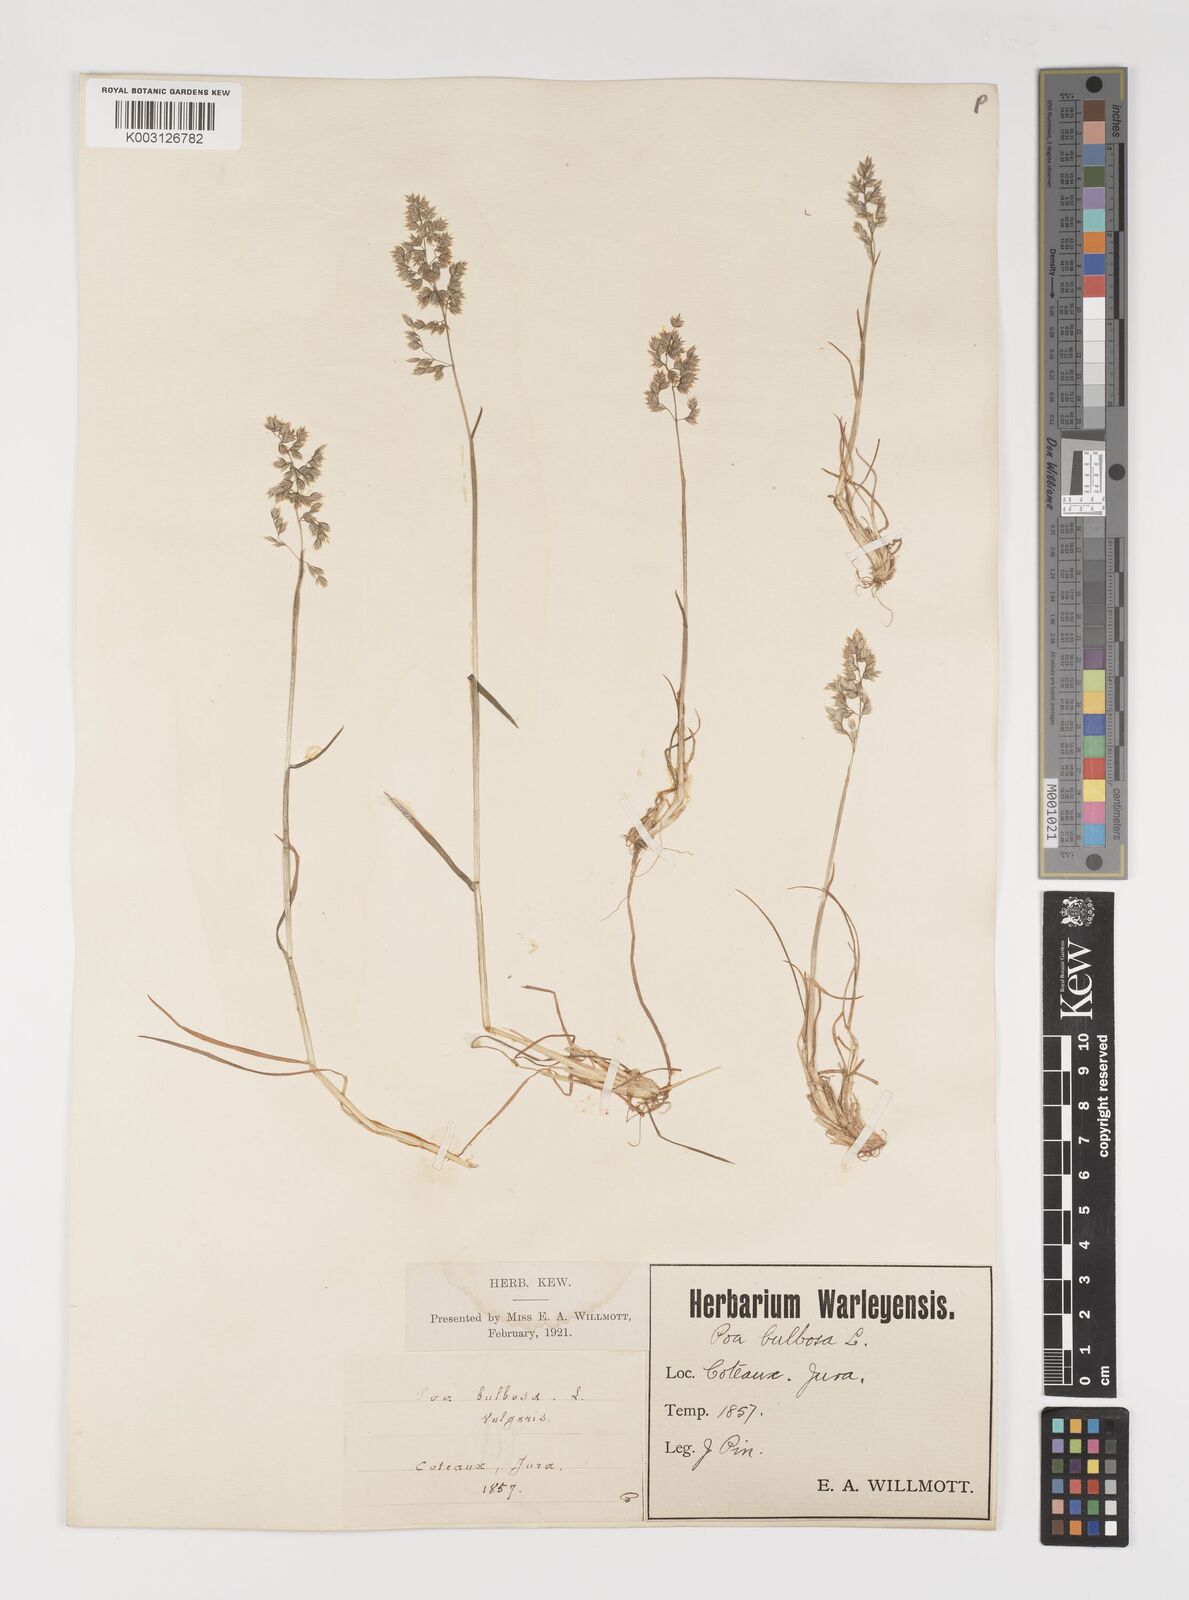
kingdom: Plantae
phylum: Tracheophyta
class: Liliopsida
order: Poales
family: Poaceae
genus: Poa
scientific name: Poa bulbosa
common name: Bulbous bluegrass
